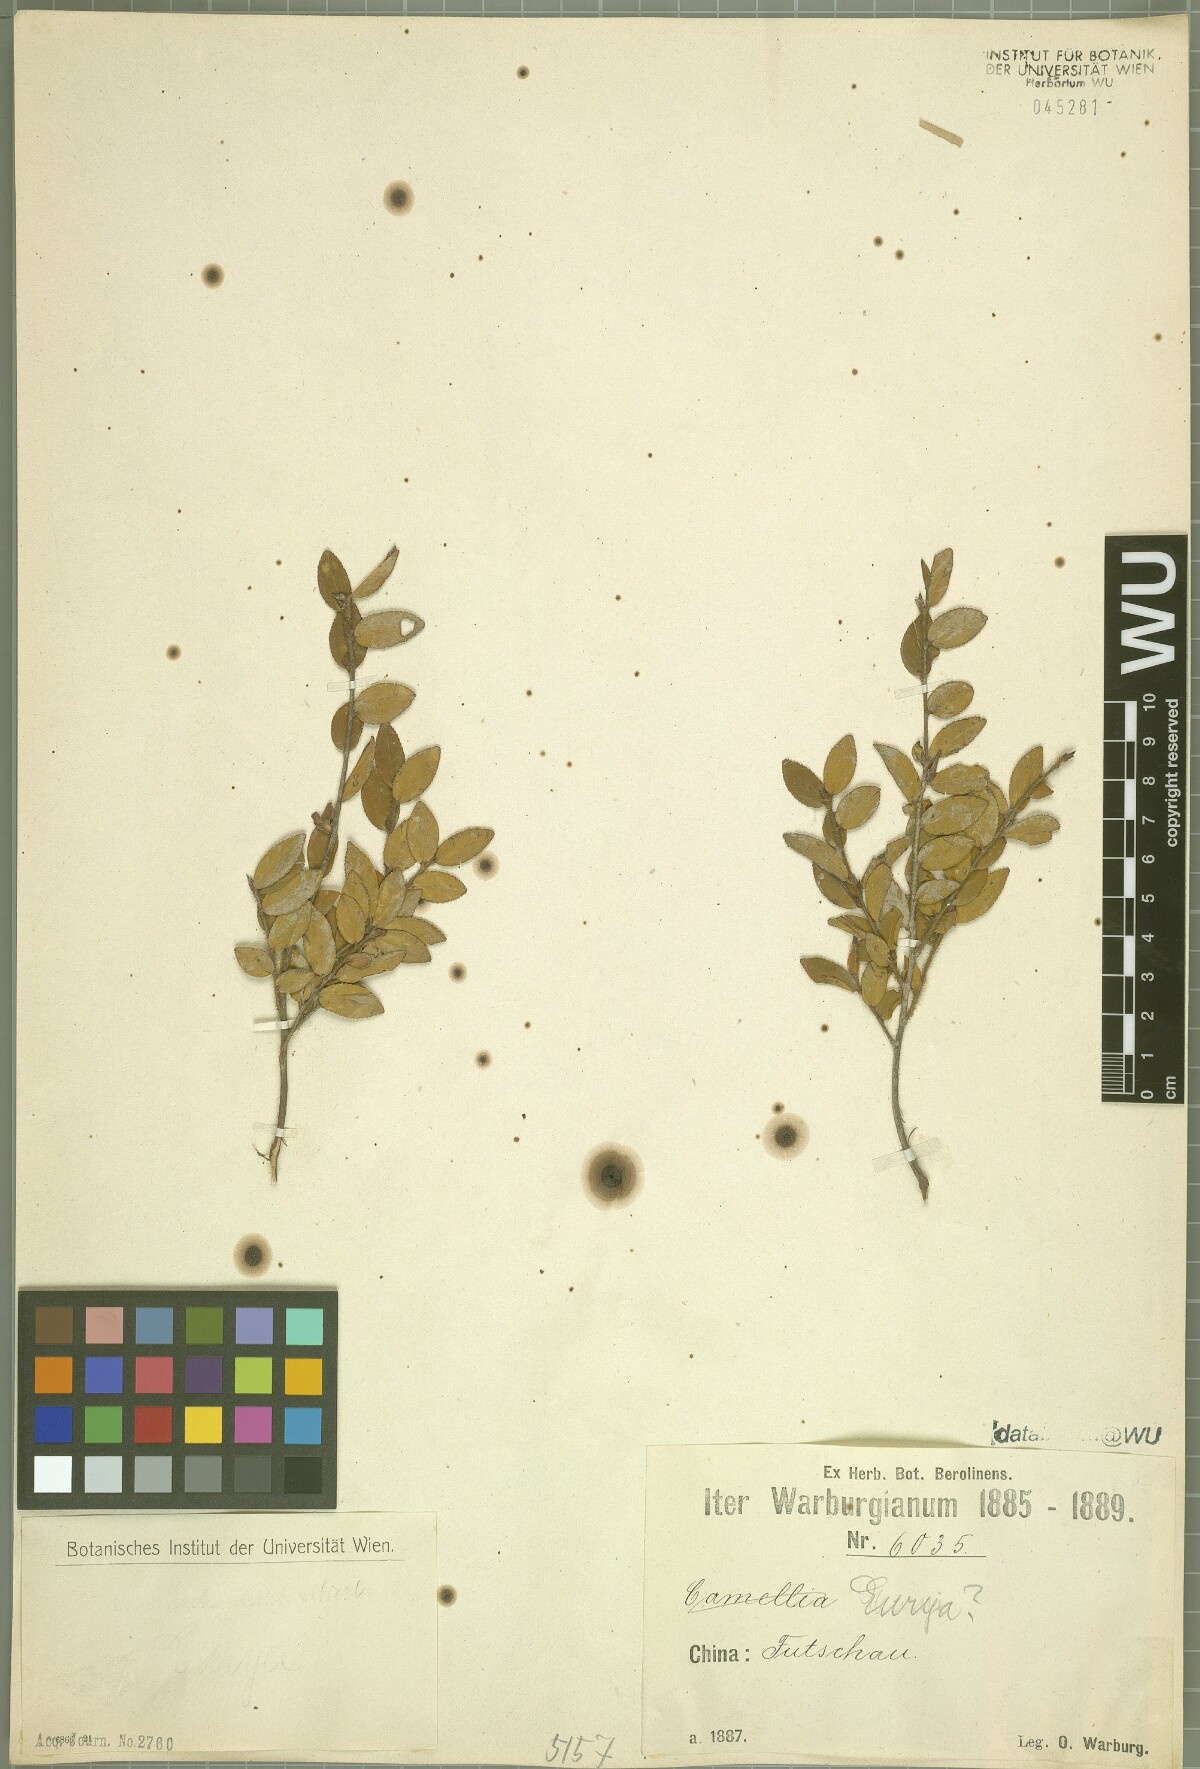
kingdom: Plantae
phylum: Tracheophyta
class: Magnoliopsida
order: Ericales
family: Pentaphylacaceae
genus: Eurya
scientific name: Eurya
